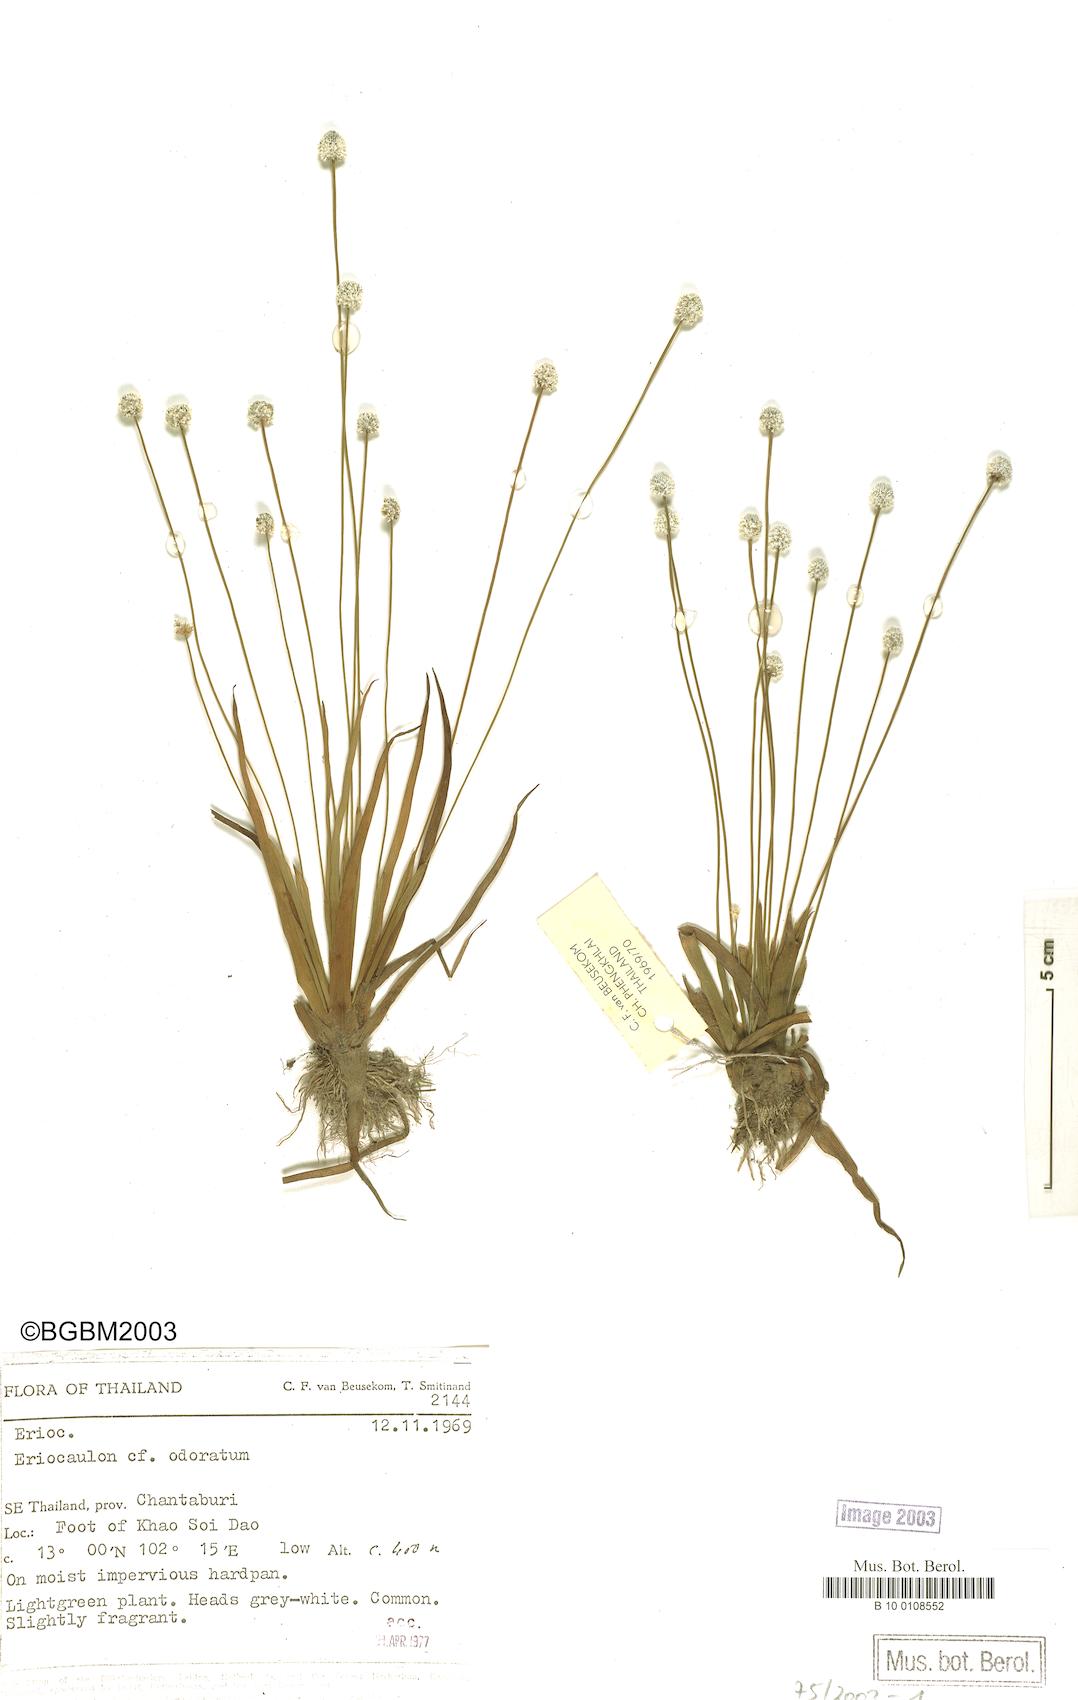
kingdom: Plantae
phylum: Tracheophyta
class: Liliopsida
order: Poales
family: Eriocaulaceae
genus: Eriocaulon
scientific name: Eriocaulon odoratum
